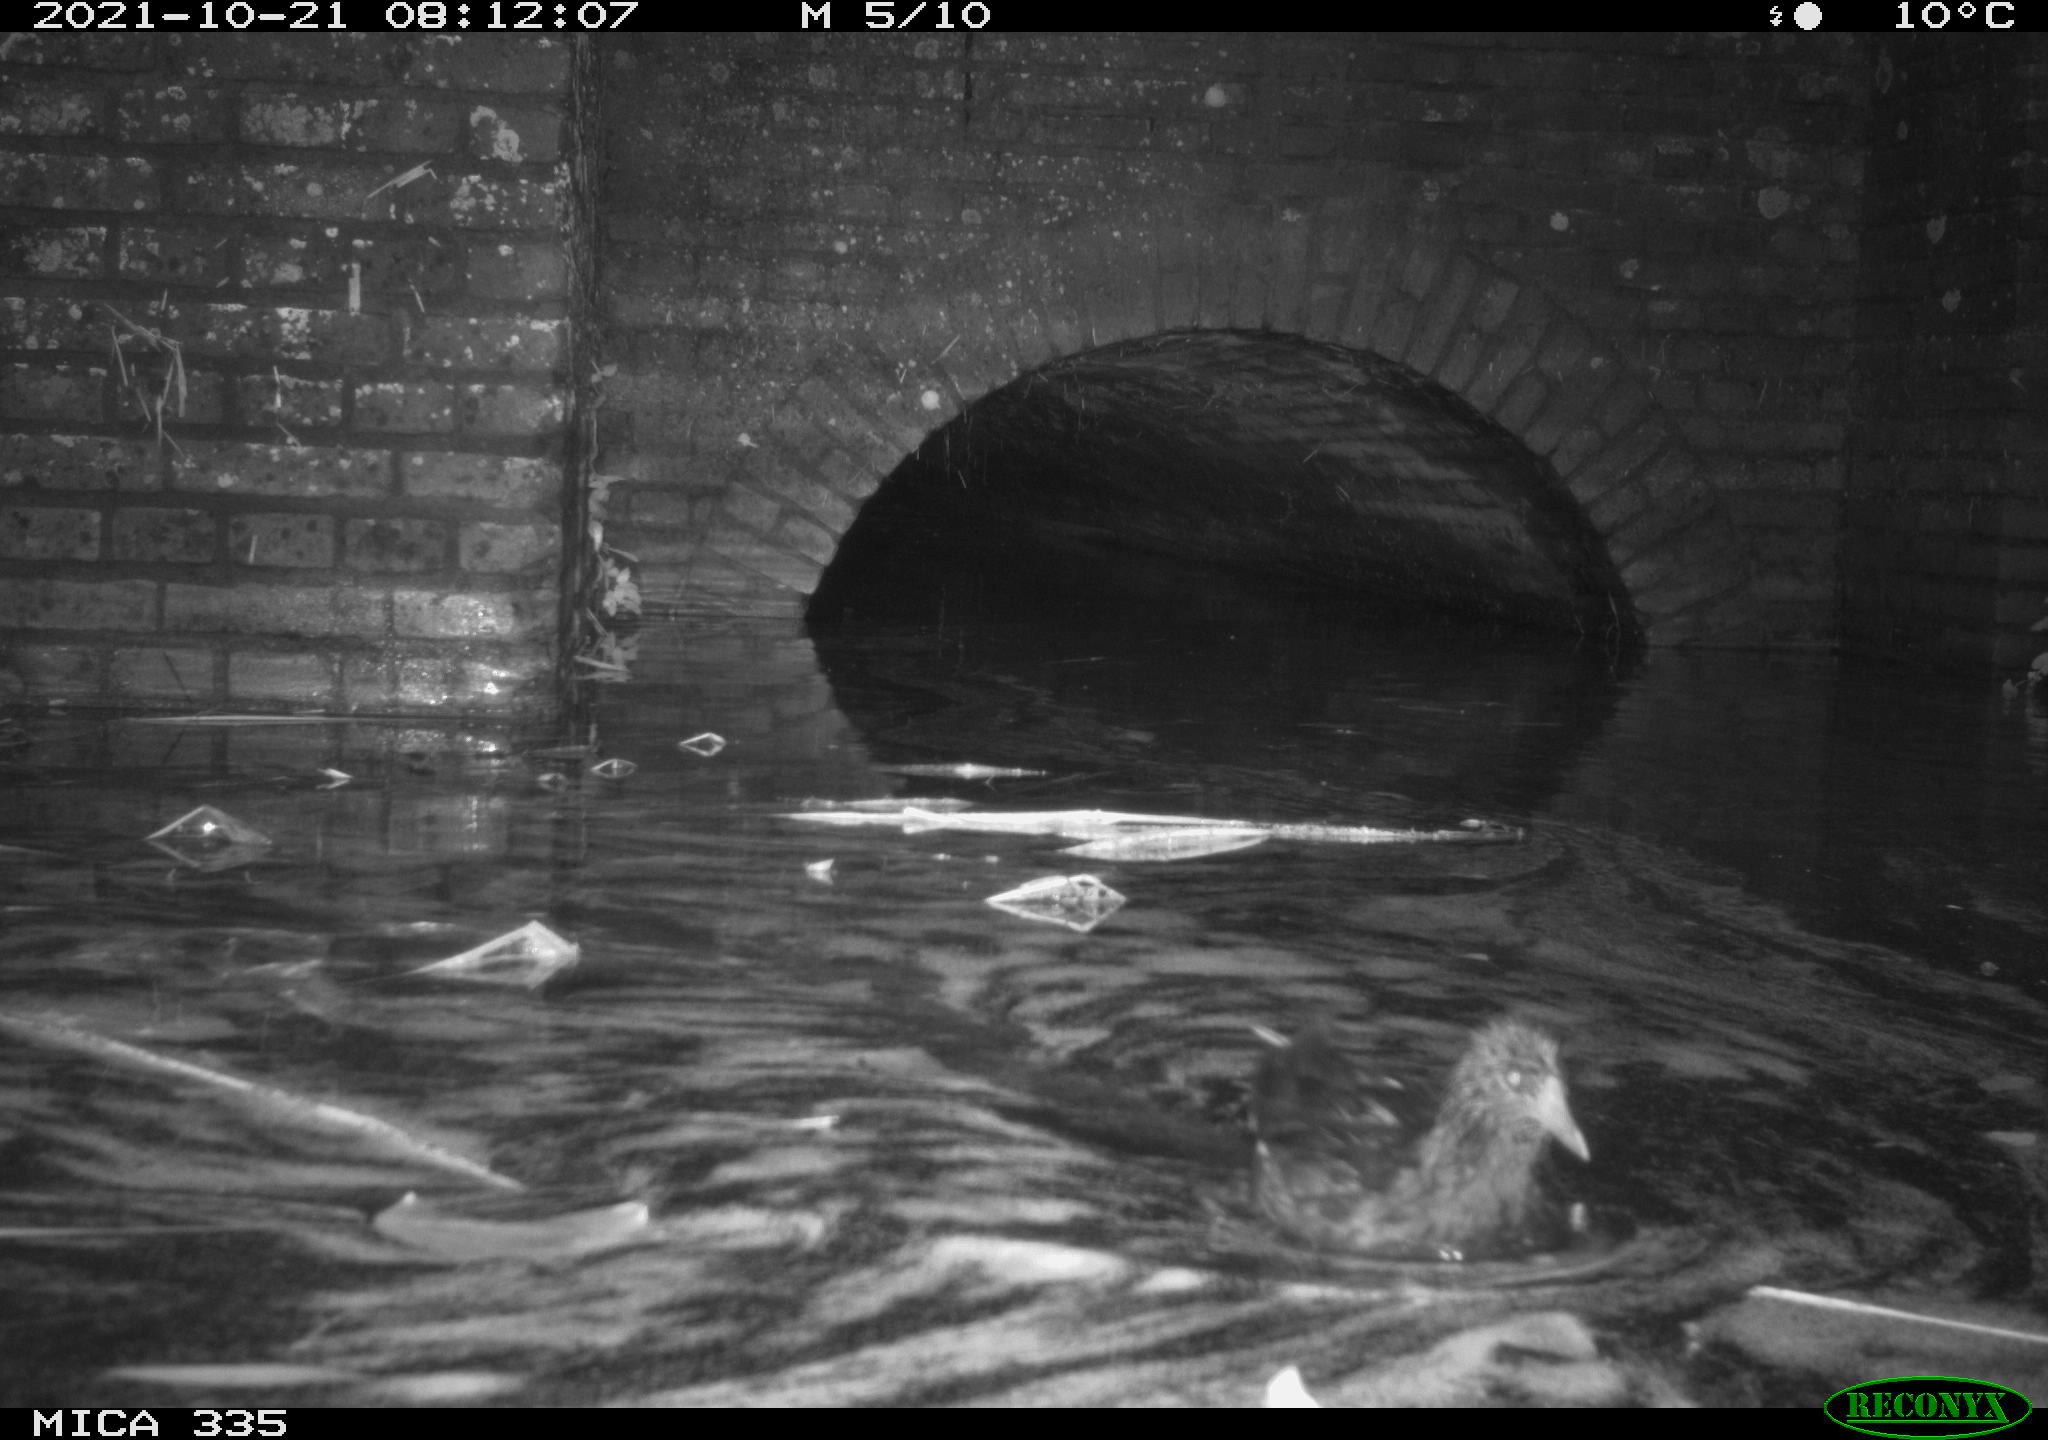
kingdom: Animalia
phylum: Chordata
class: Aves
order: Gruiformes
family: Rallidae
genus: Gallinula
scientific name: Gallinula chloropus
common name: Common moorhen
